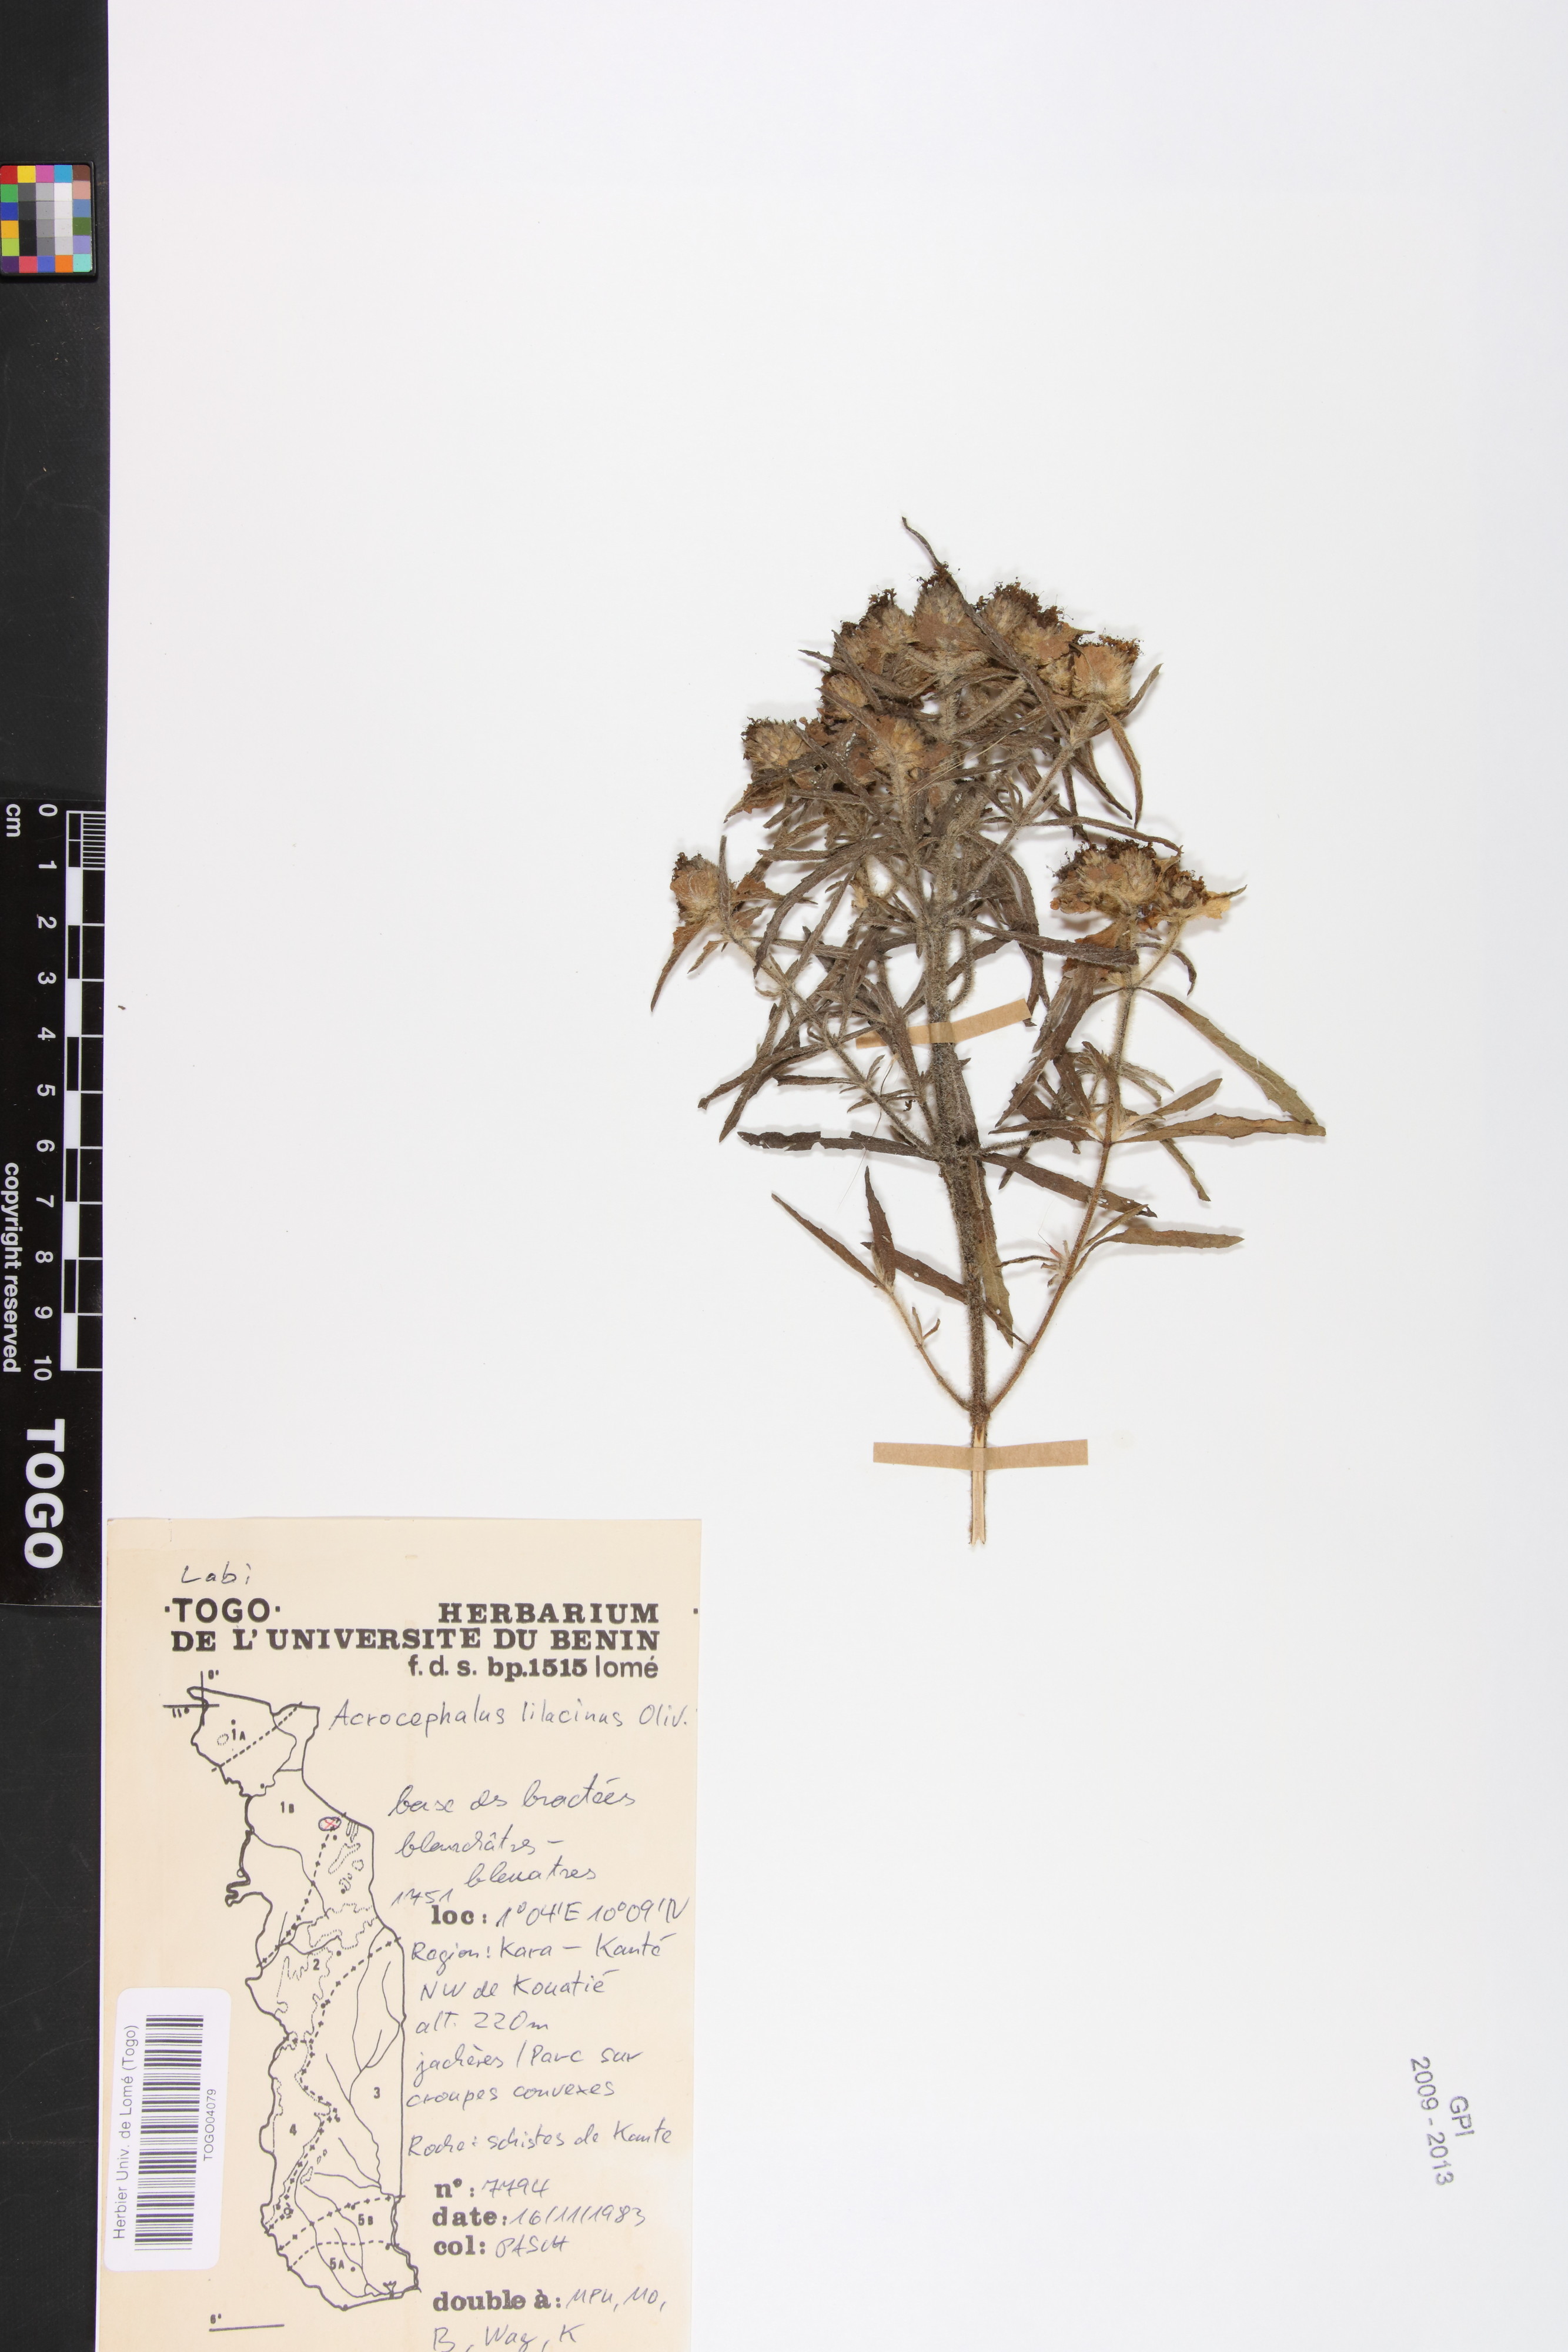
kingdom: Plantae
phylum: Tracheophyta
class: Magnoliopsida
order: Lamiales
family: Lamiaceae
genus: Haumaniastrum
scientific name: Haumaniastrum caeruleum
